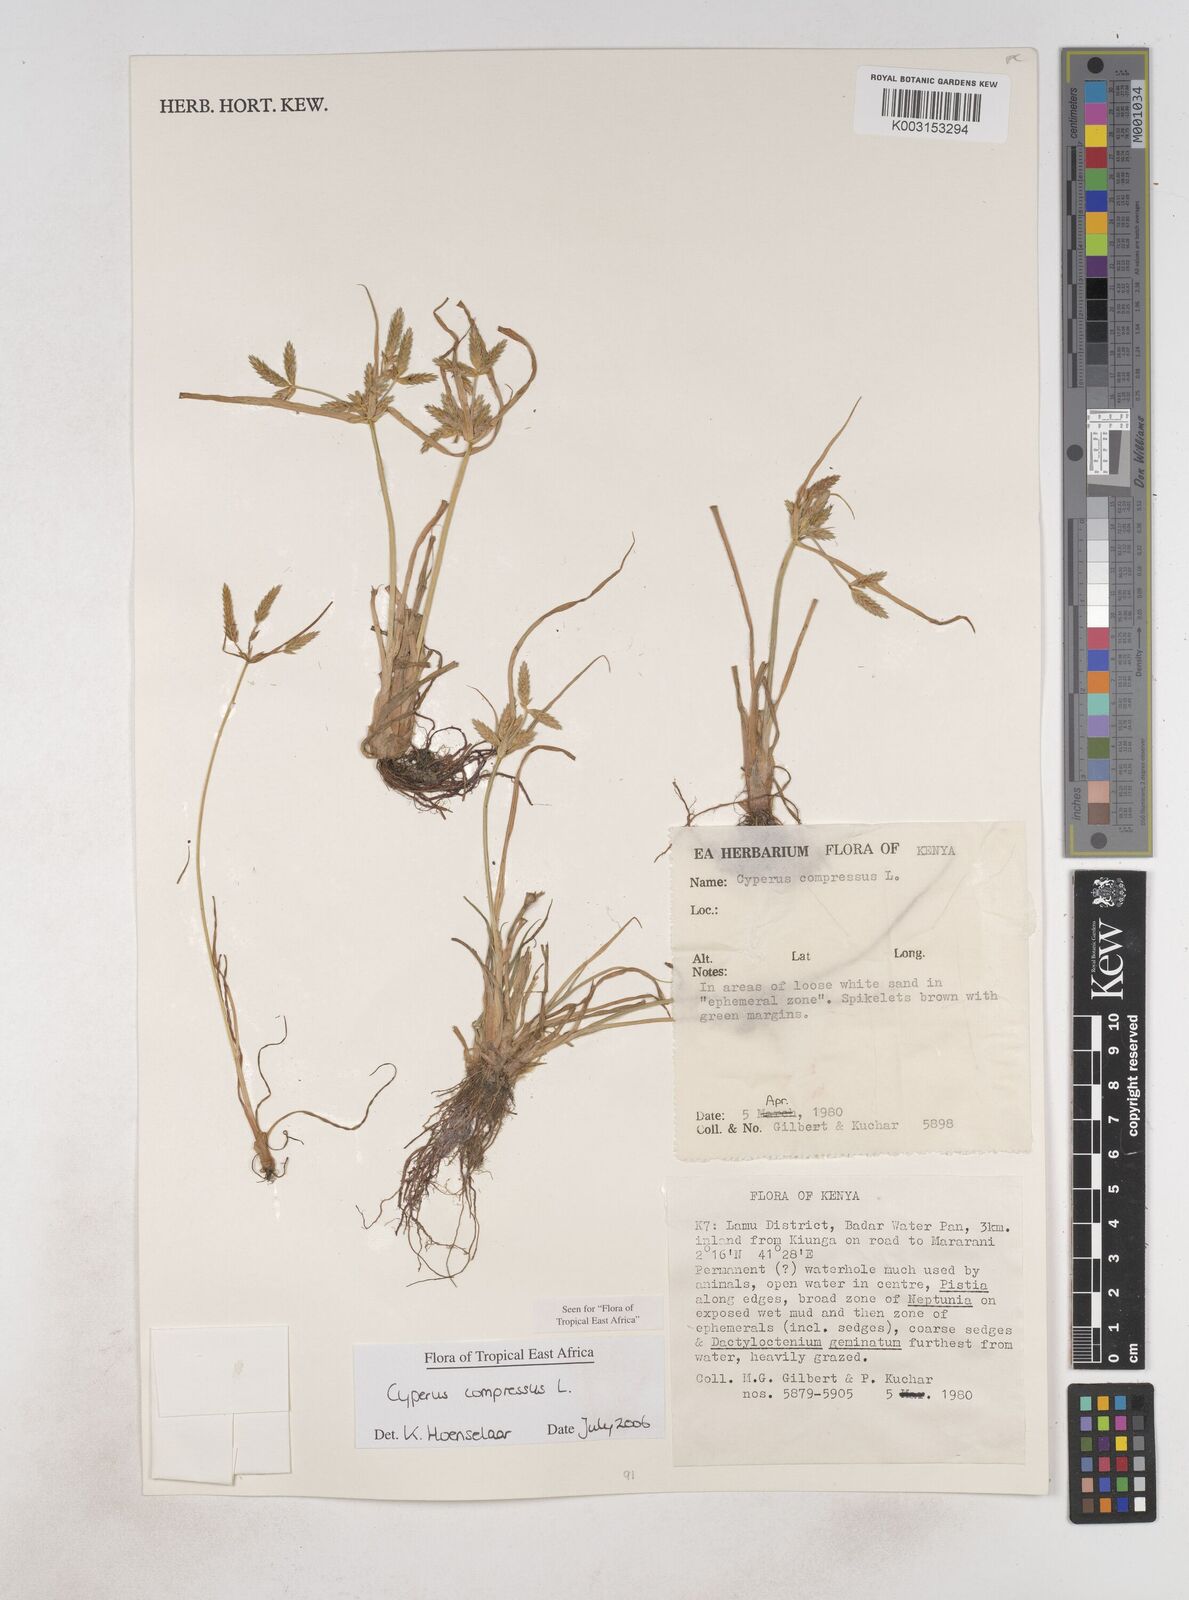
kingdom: Plantae
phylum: Tracheophyta
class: Liliopsida
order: Poales
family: Cyperaceae
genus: Cyperus
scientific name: Cyperus compressus
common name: Poorland flatsedge
